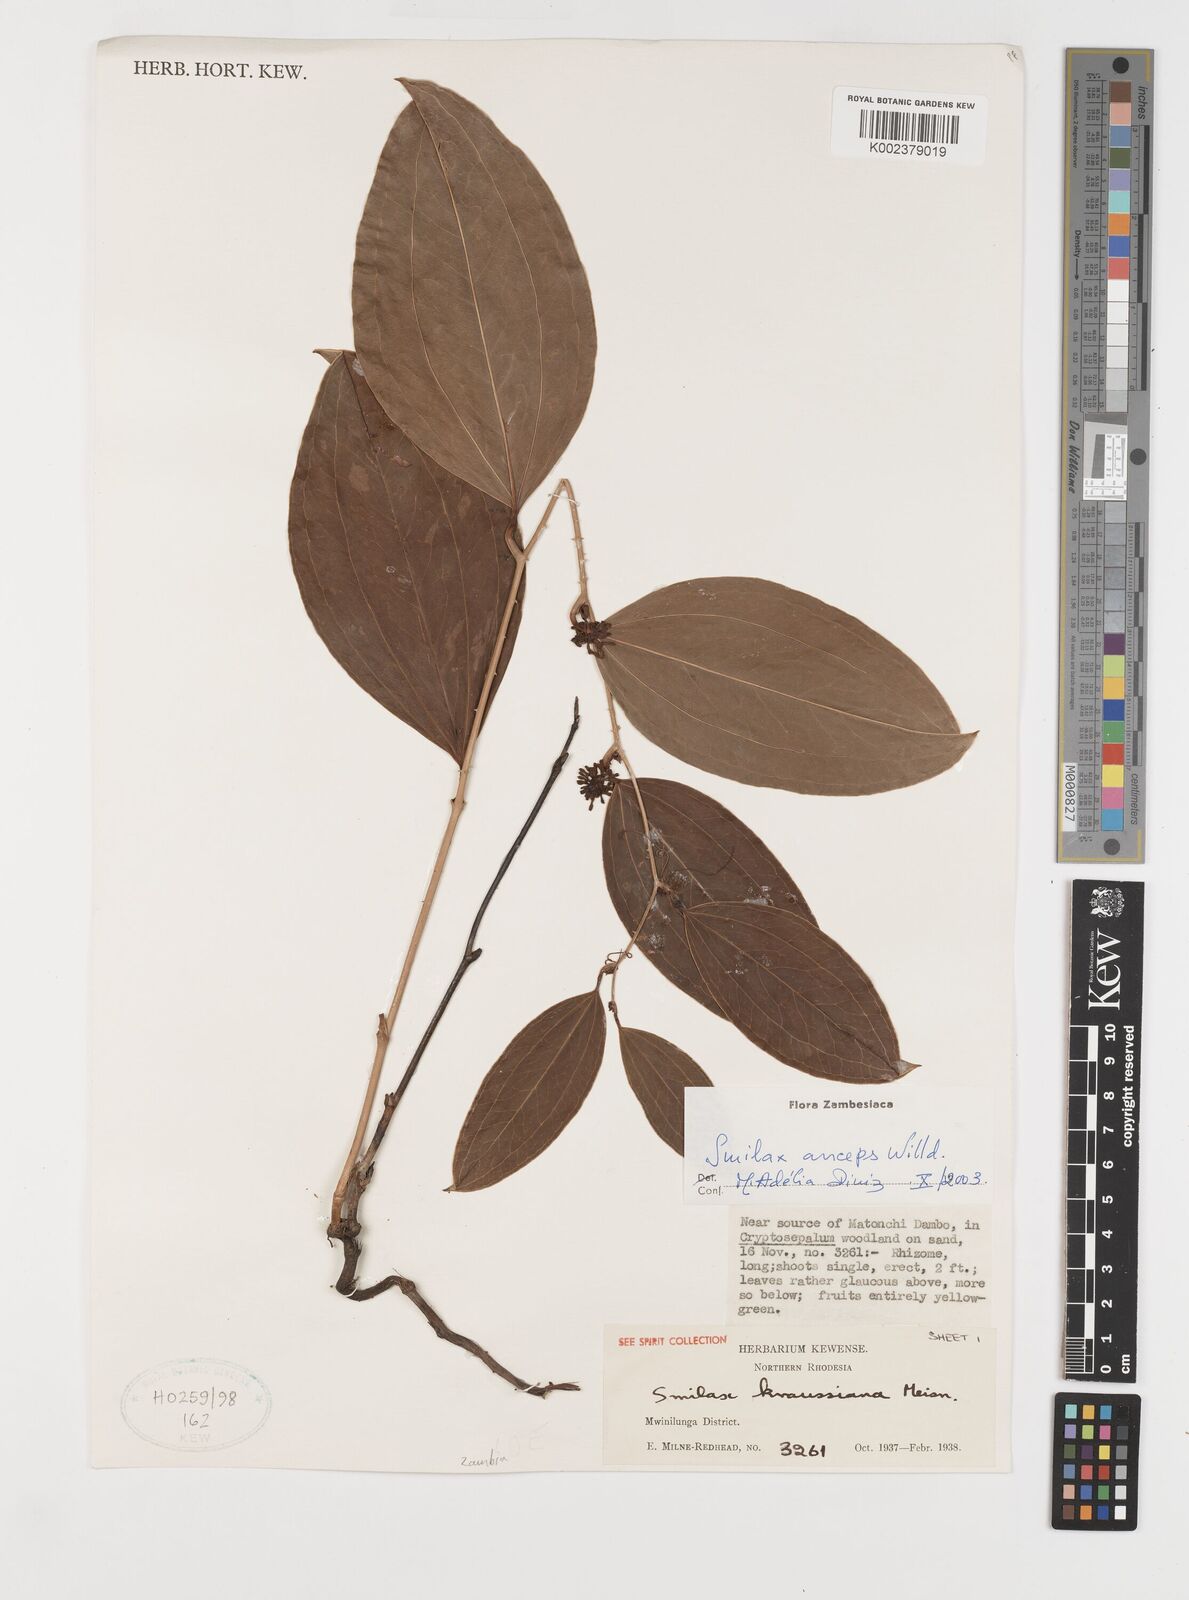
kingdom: Plantae
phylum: Tracheophyta
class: Liliopsida
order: Liliales
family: Smilacaceae
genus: Smilax
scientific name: Smilax anceps
